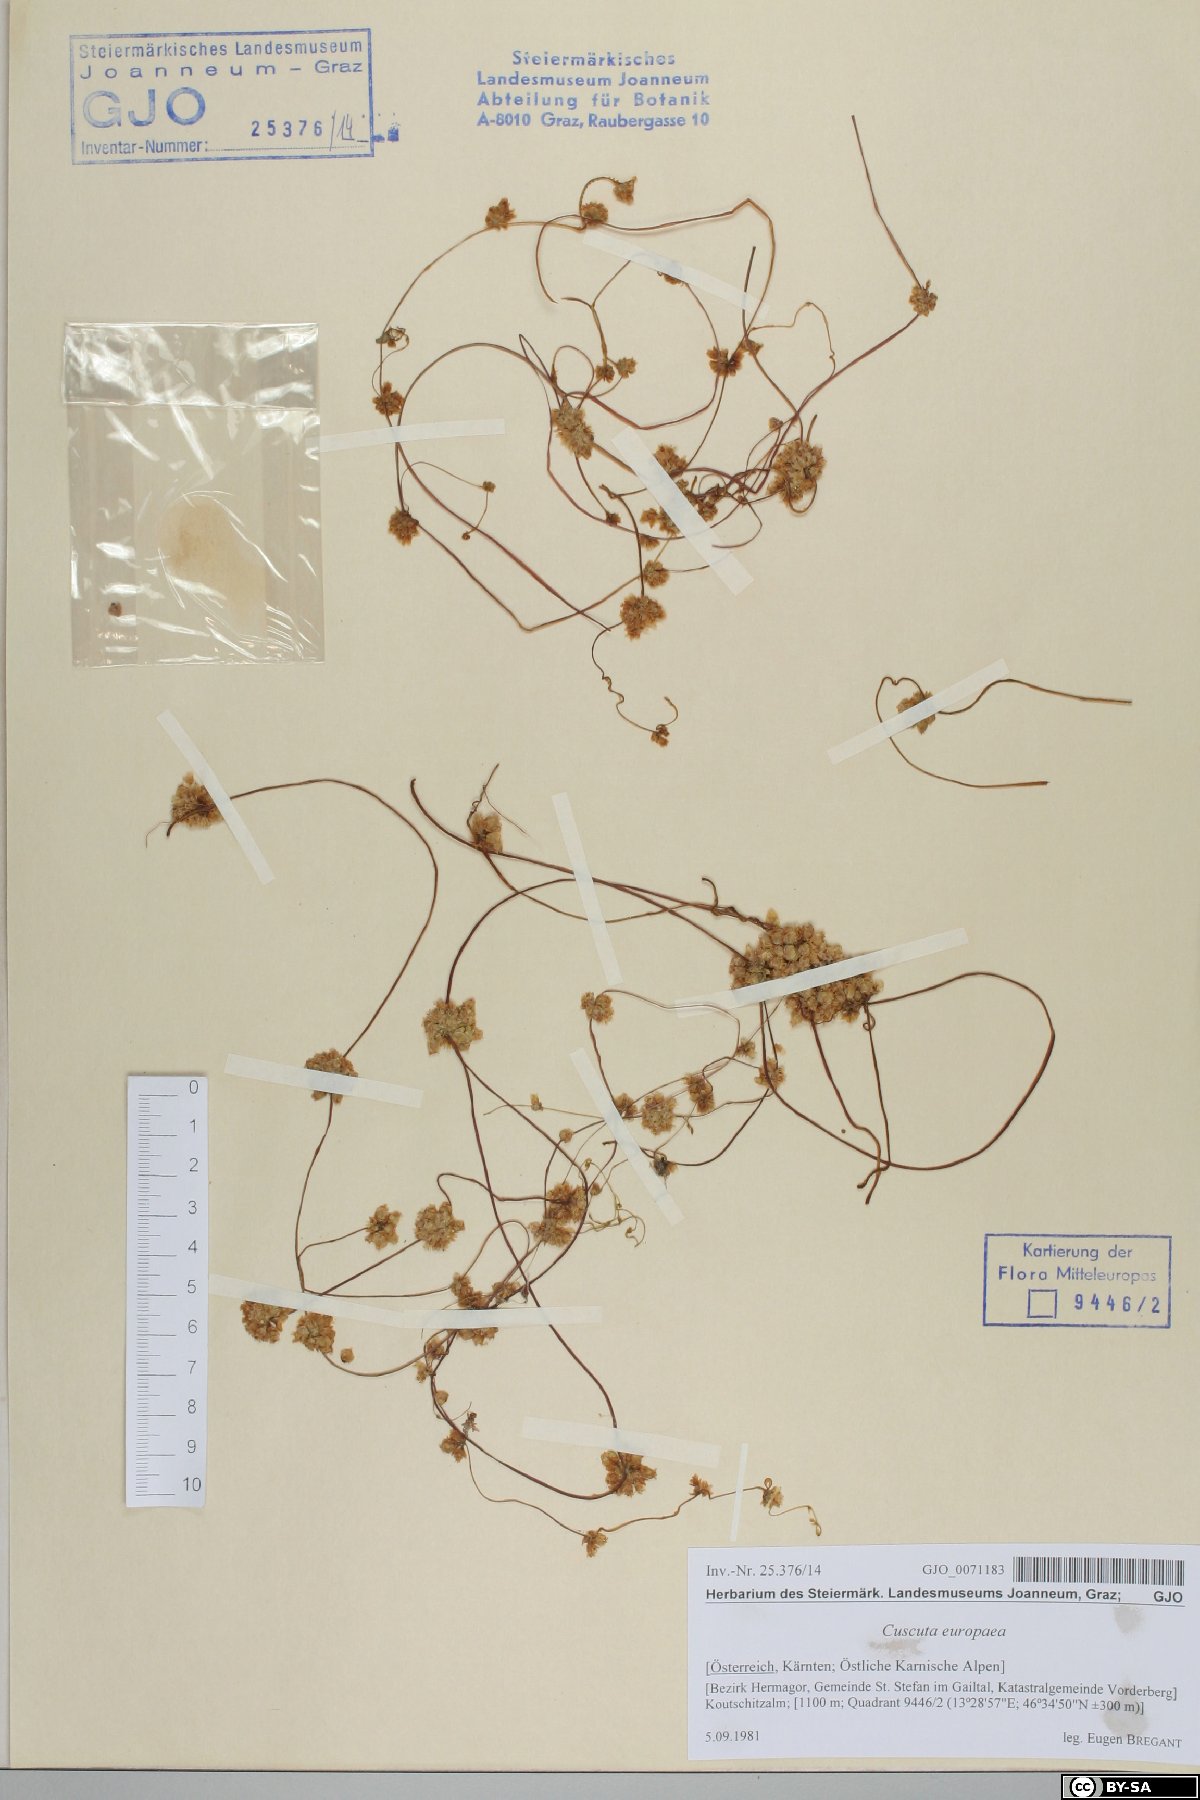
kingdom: Plantae
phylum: Tracheophyta
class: Magnoliopsida
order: Solanales
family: Convolvulaceae
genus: Cuscuta
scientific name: Cuscuta europaea
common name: Greater dodder
